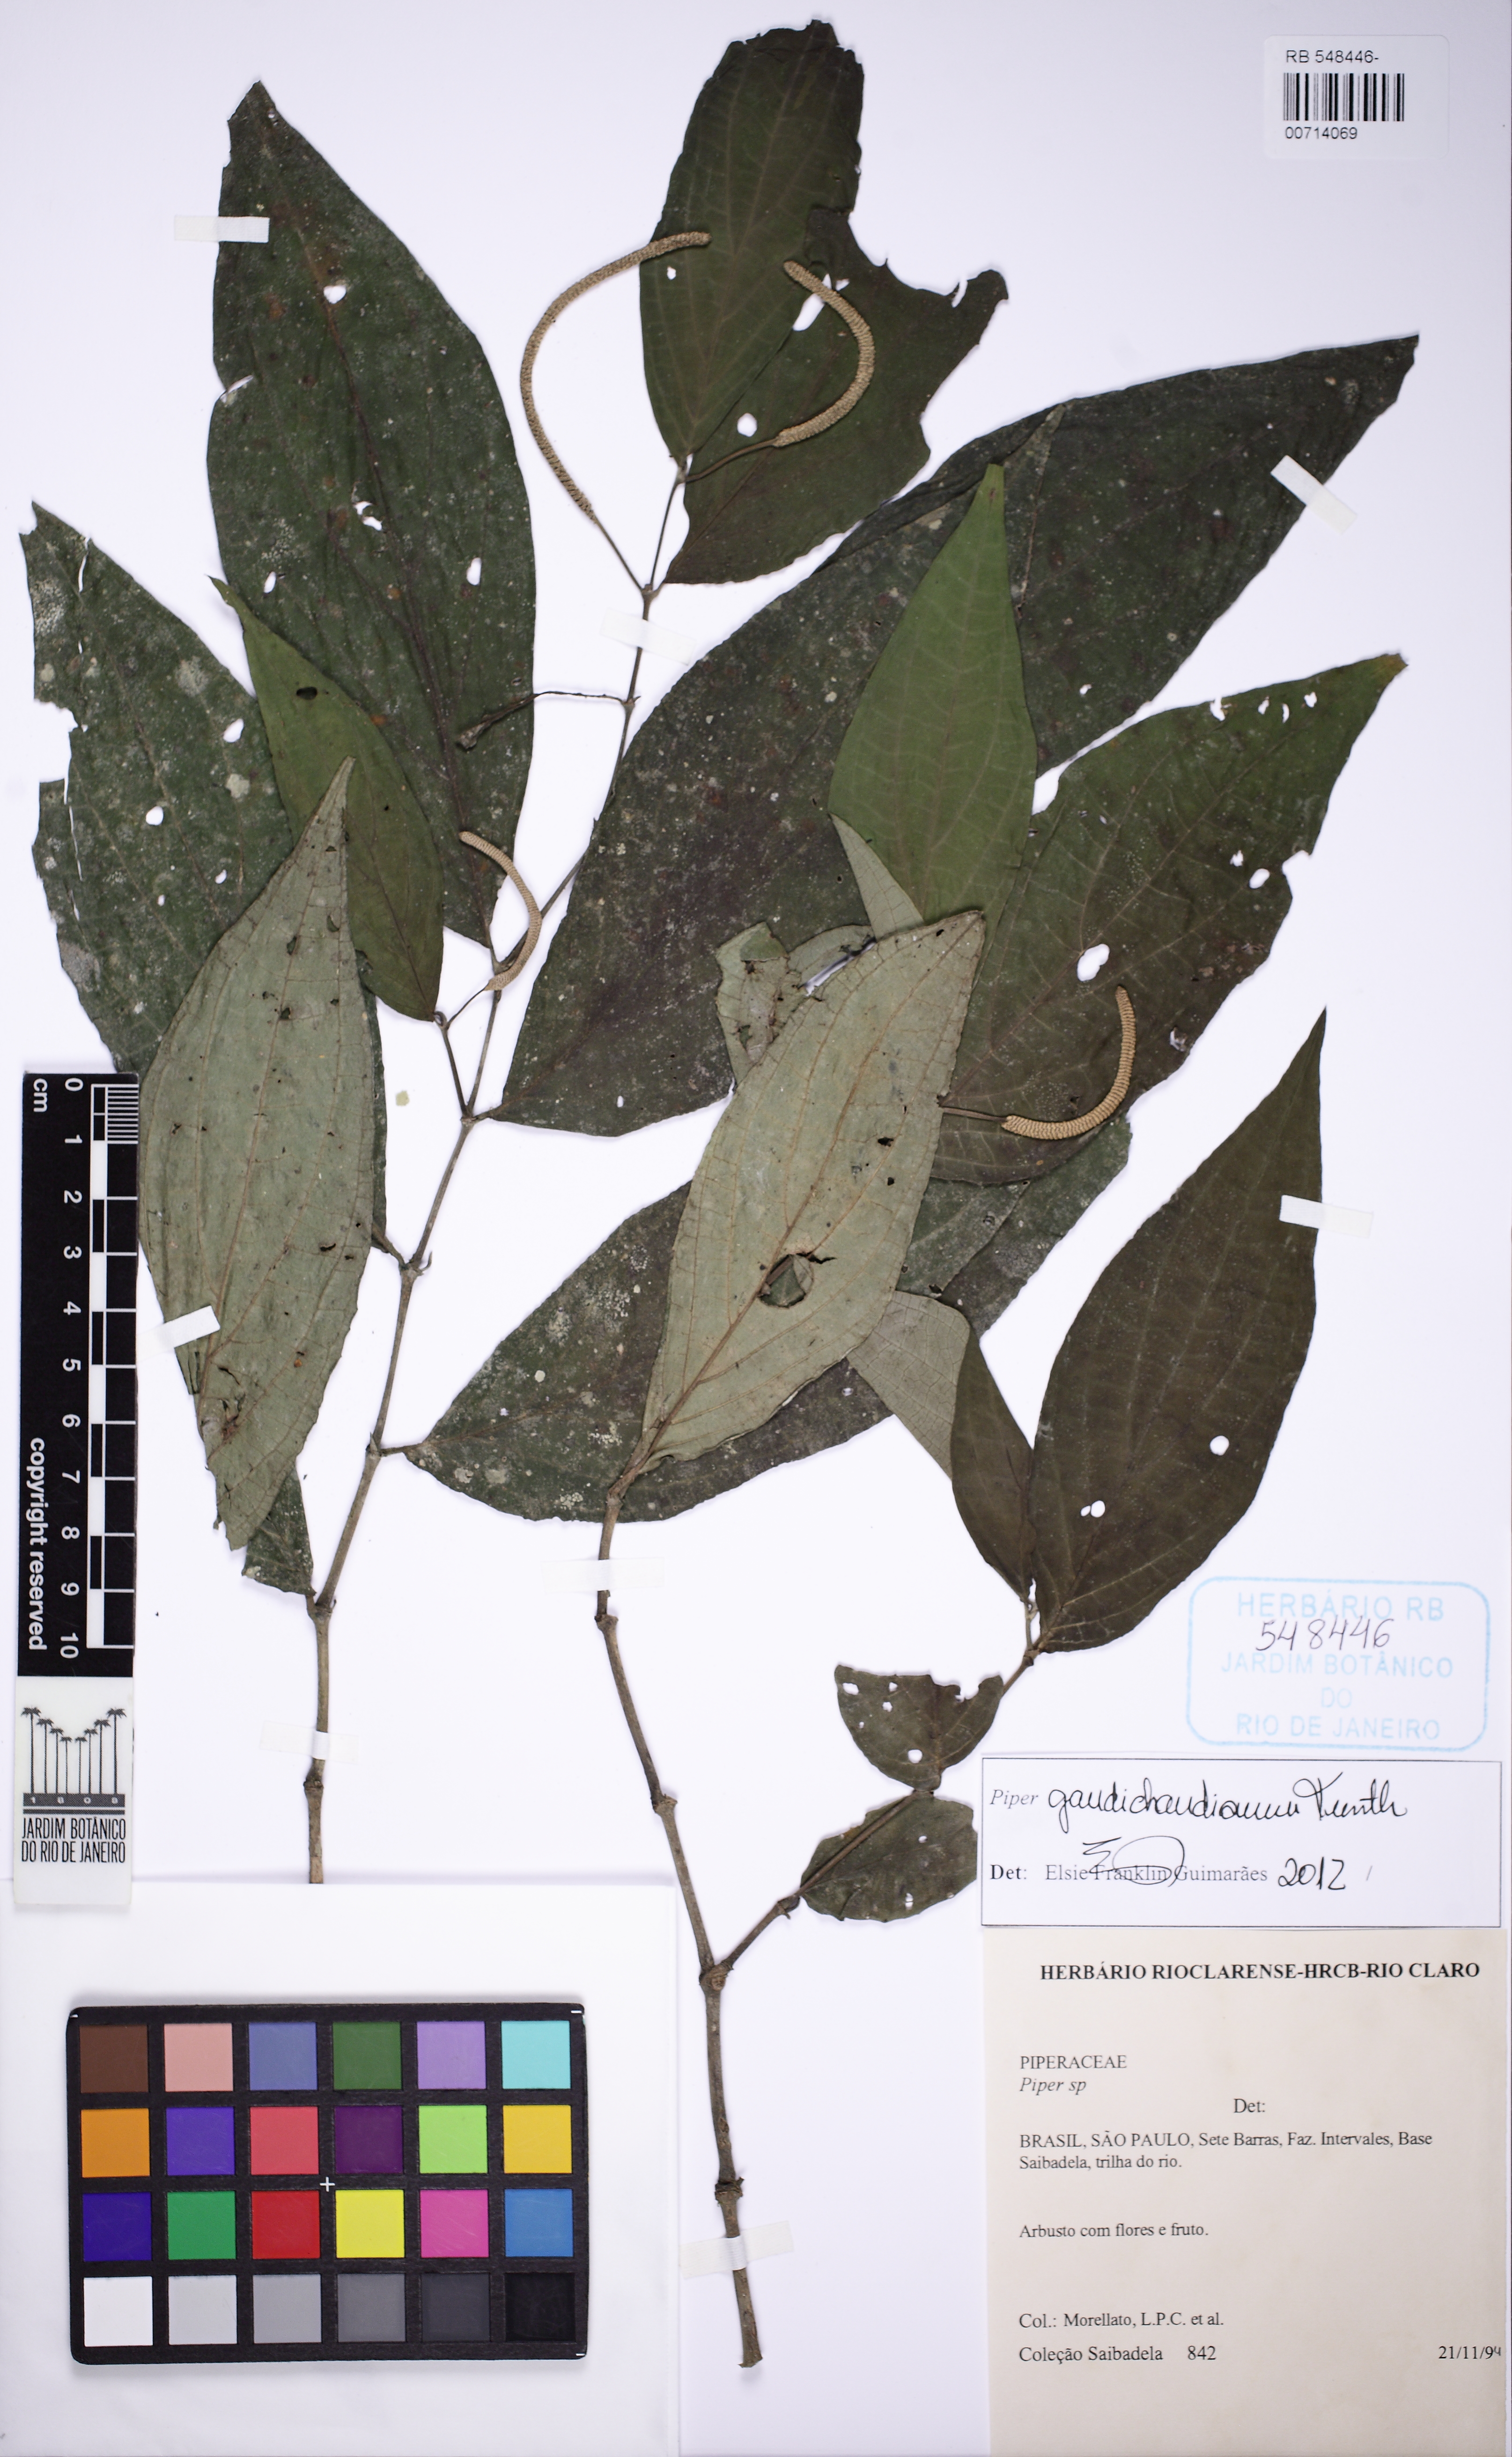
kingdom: Plantae
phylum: Tracheophyta
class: Magnoliopsida
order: Piperales
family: Piperaceae
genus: Piper
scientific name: Piper gaudichaudianum
